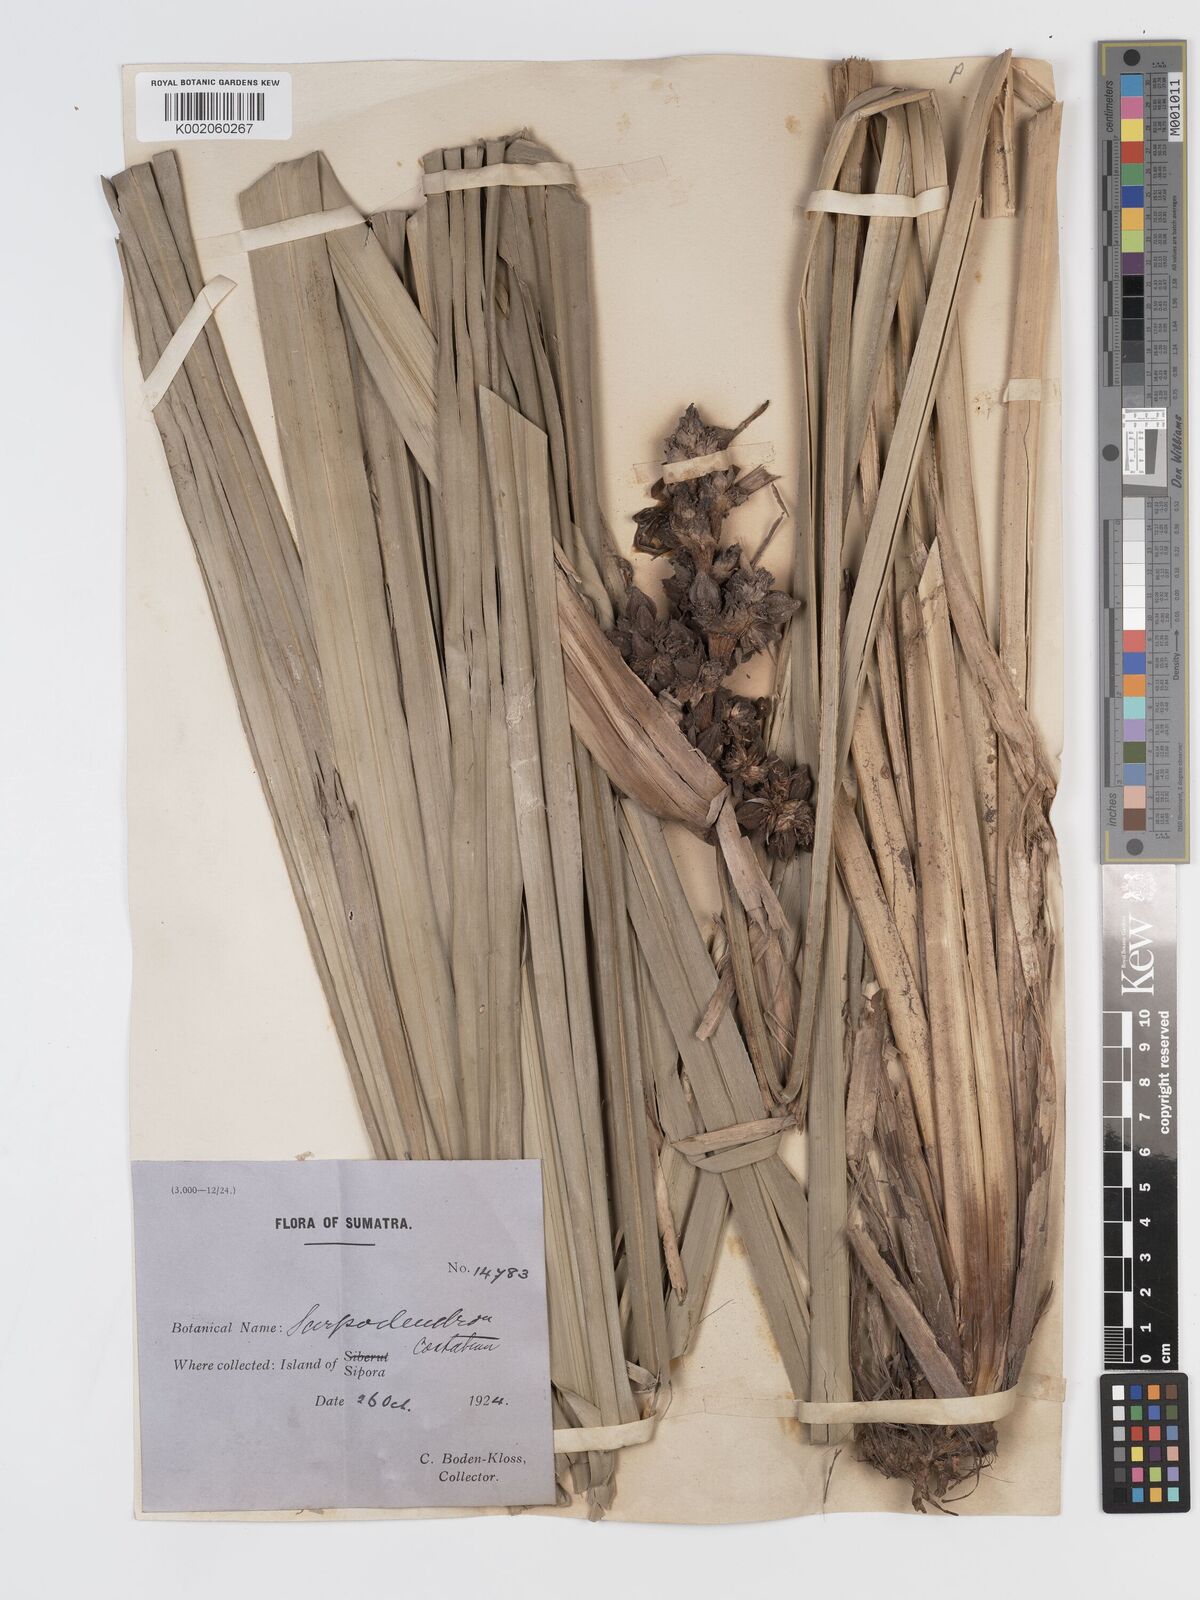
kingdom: Plantae
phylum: Tracheophyta
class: Liliopsida
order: Poales
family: Cyperaceae
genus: Scirpodendron
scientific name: Scirpodendron ghaeri
